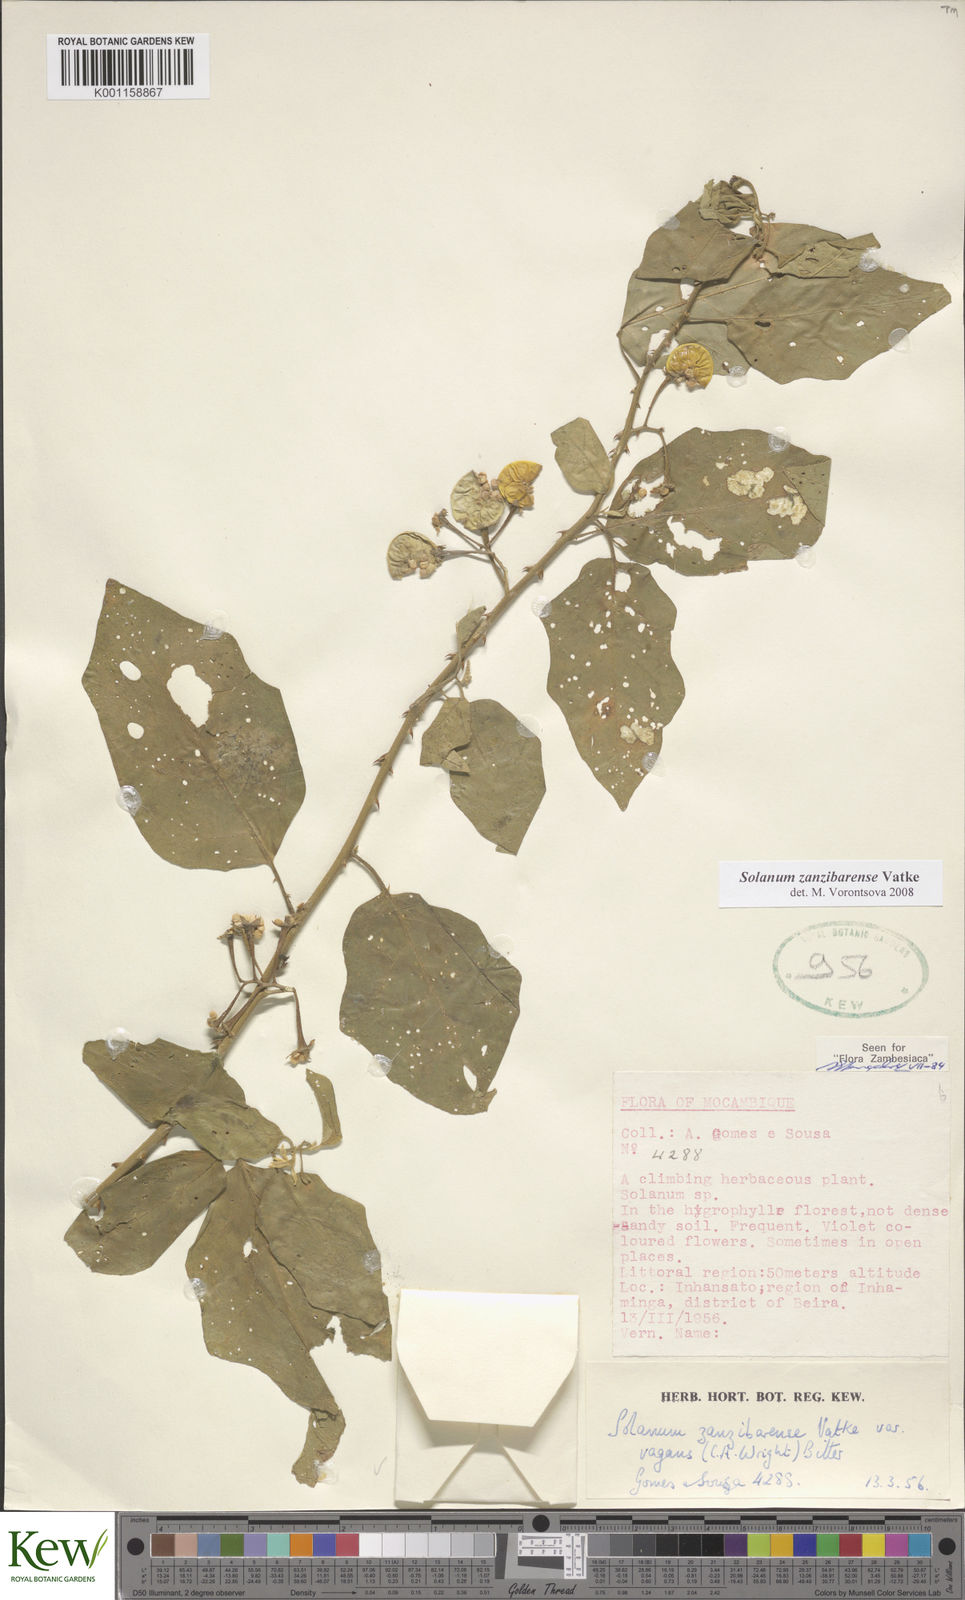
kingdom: Plantae
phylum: Tracheophyta
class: Magnoliopsida
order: Solanales
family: Solanaceae
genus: Solanum
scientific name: Solanum zanzibarense
